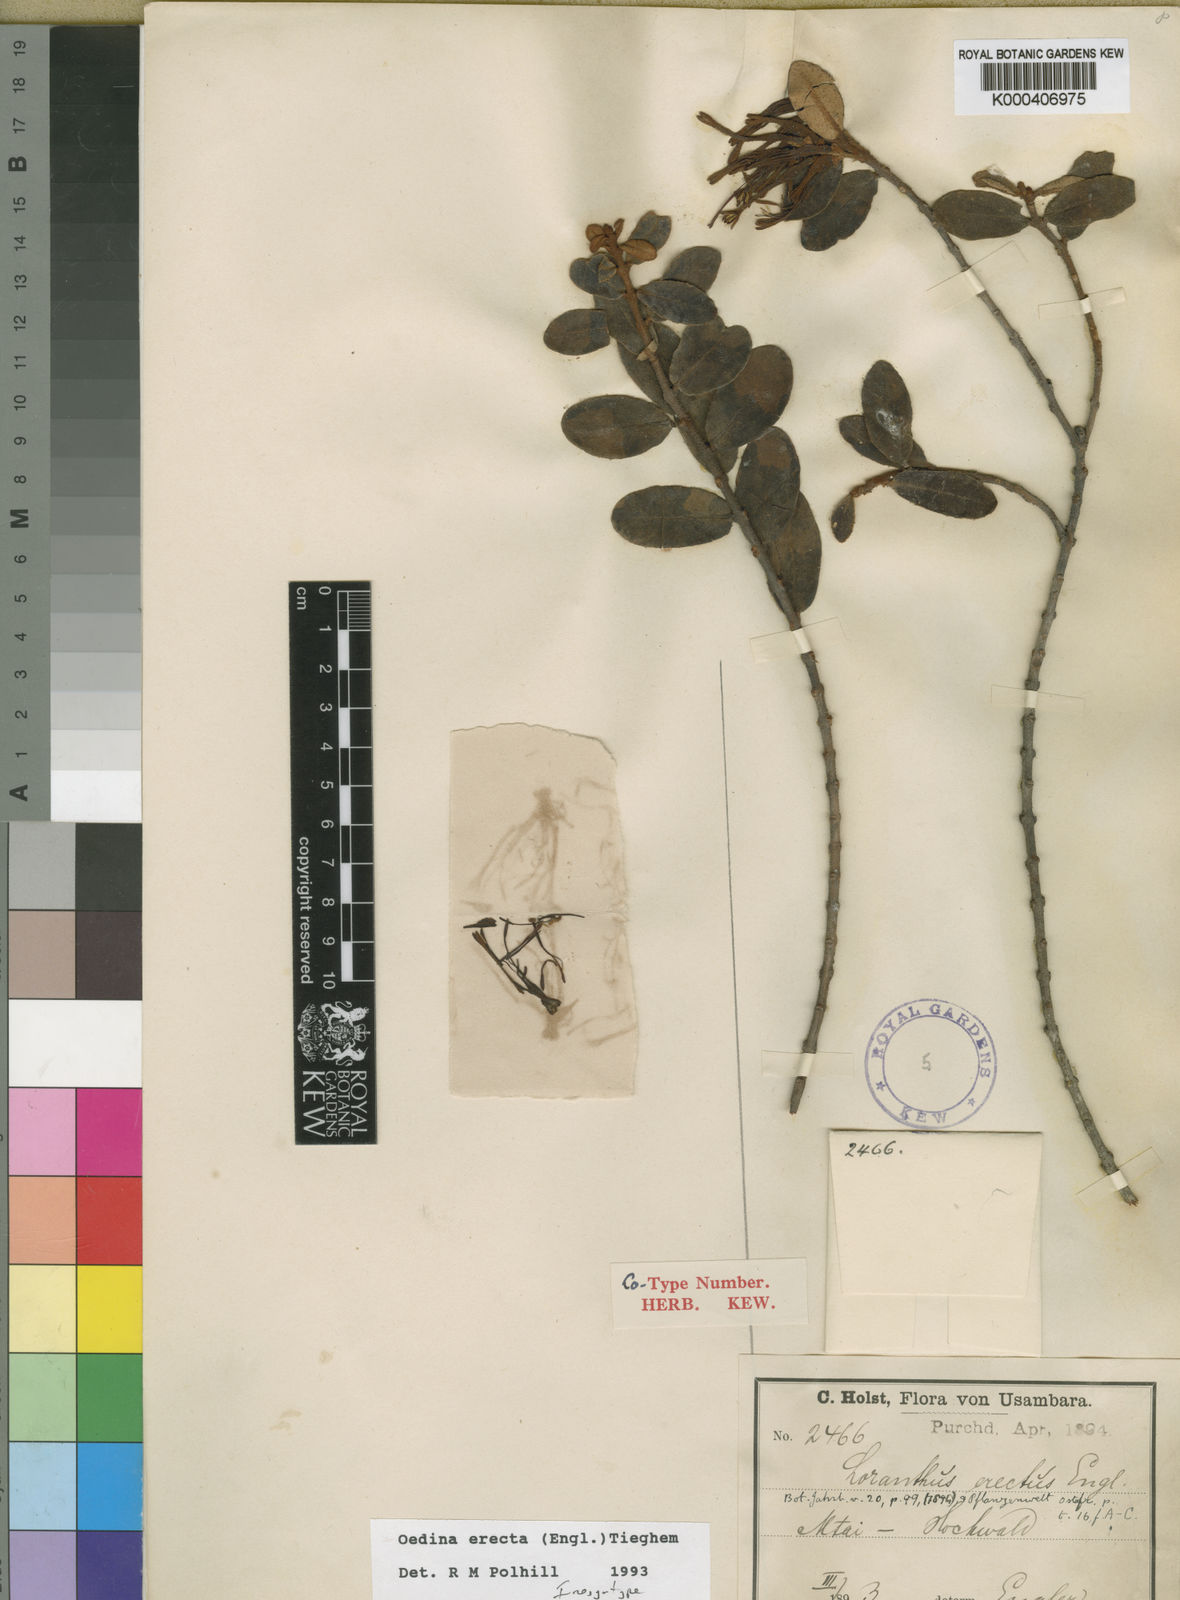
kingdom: Plantae
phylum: Tracheophyta
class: Magnoliopsida
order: Santalales
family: Loranthaceae
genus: Oedina
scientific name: Oedina erecta
